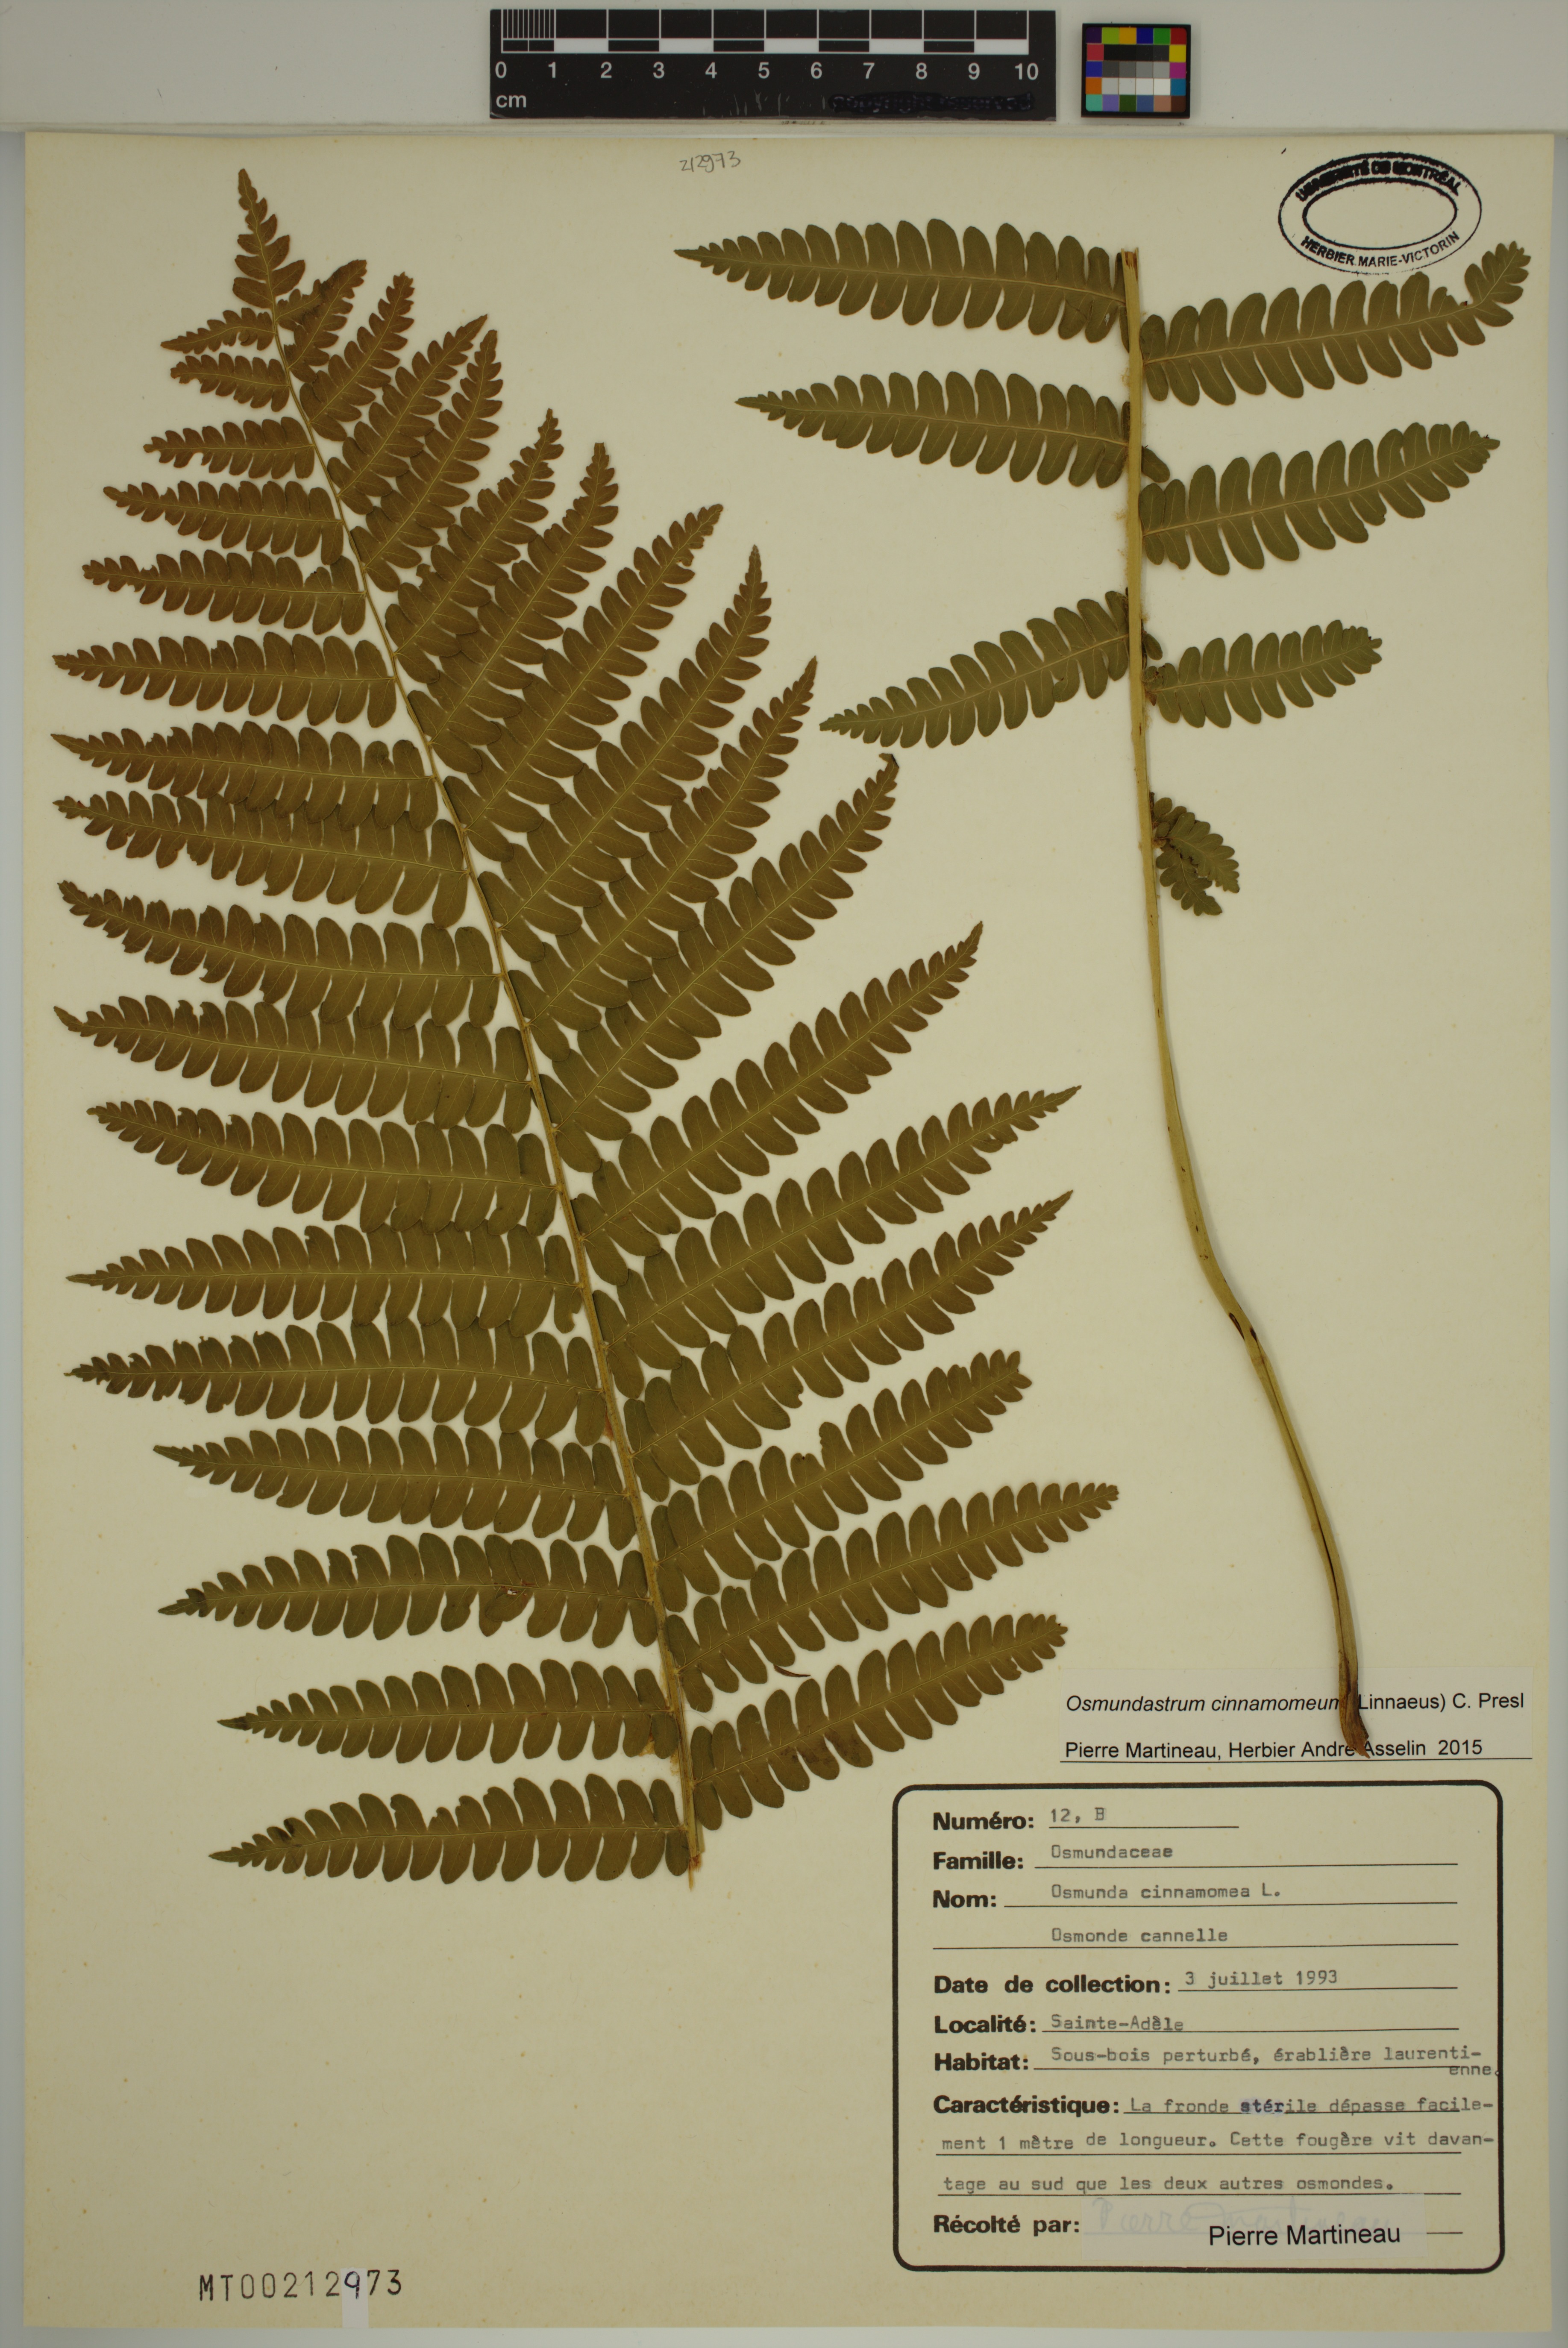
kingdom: Plantae
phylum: Tracheophyta
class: Polypodiopsida
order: Osmundales
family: Osmundaceae
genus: Osmundastrum
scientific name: Osmundastrum cinnamomeum
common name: Cinnamon fern
